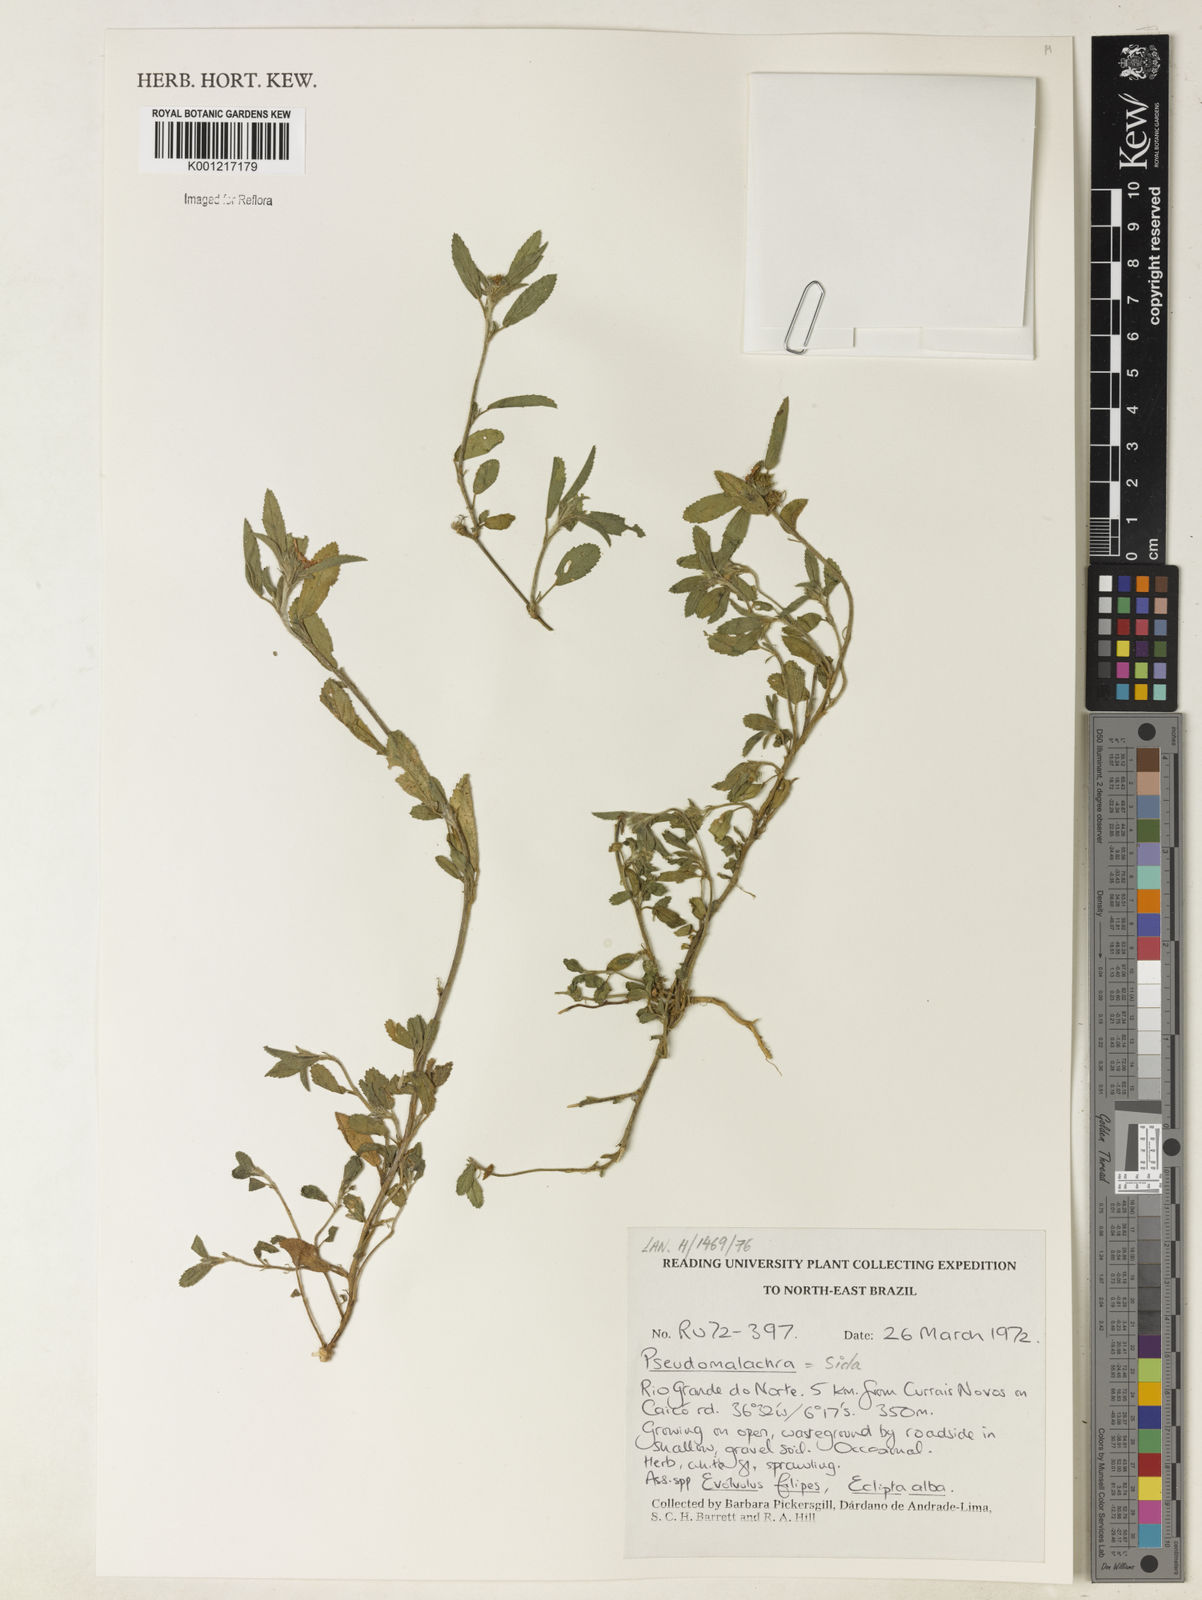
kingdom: Plantae
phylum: Tracheophyta
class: Magnoliopsida
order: Malvales
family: Malvaceae
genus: Sida
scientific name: Sida
